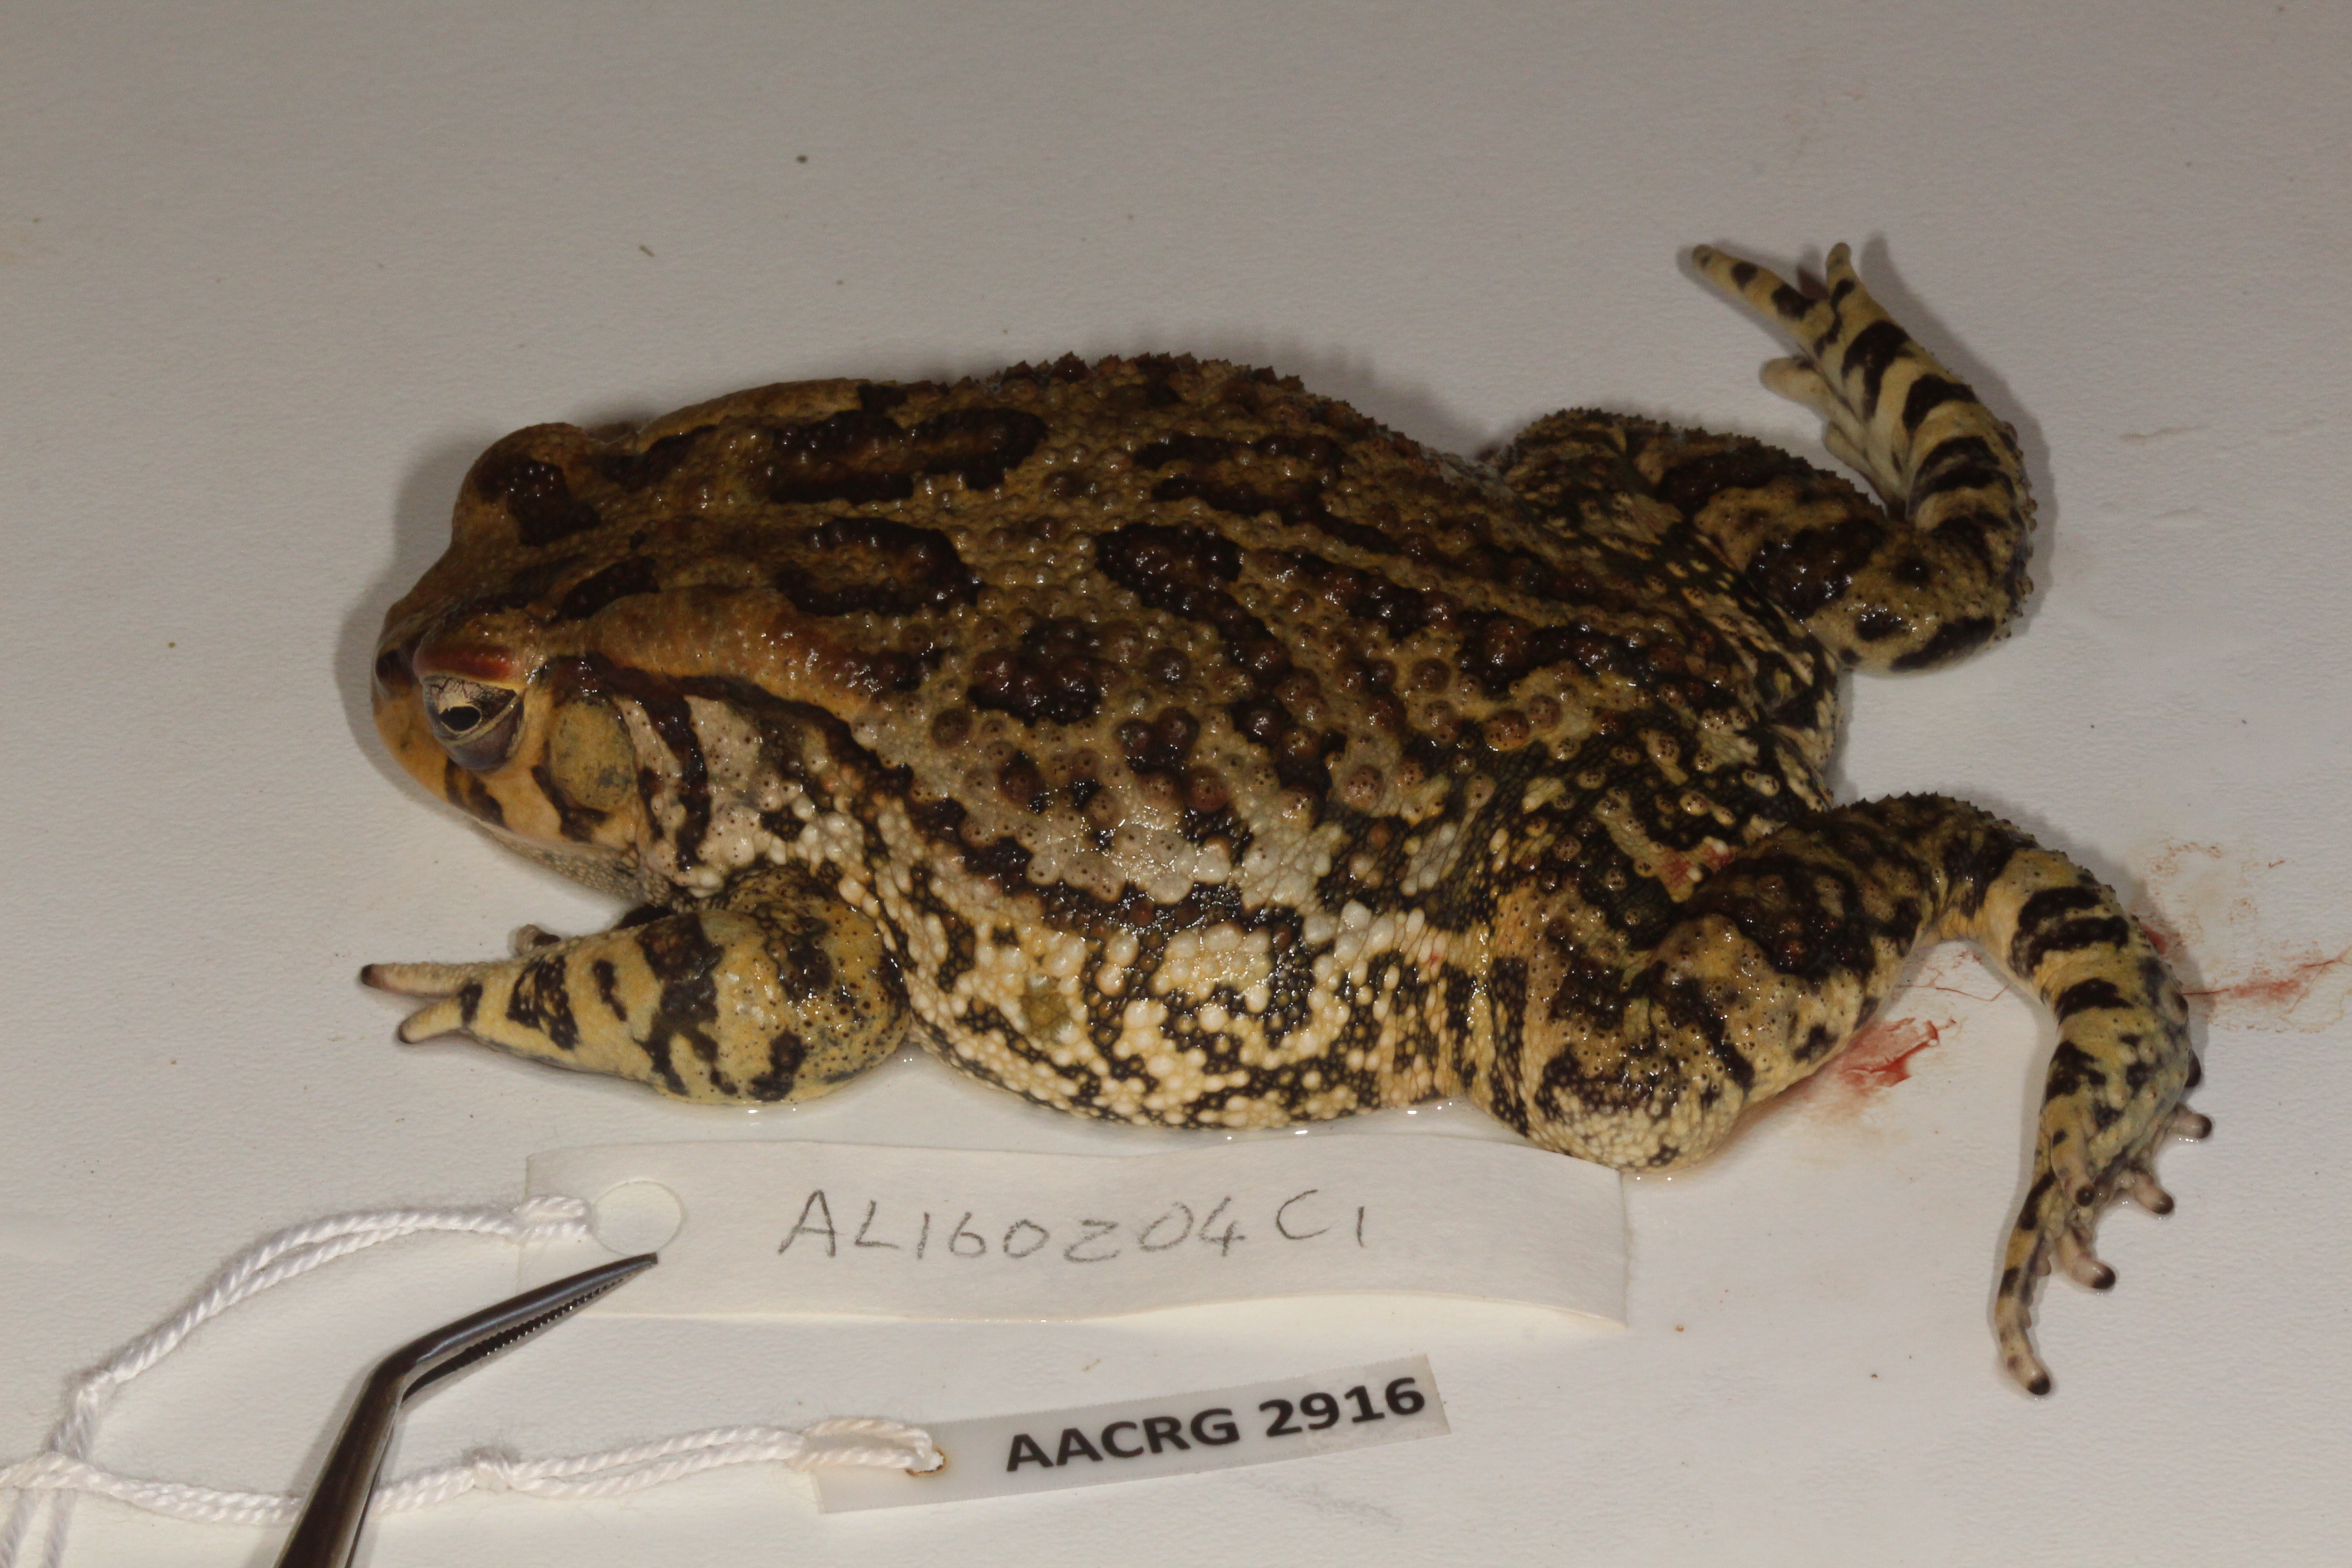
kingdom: Animalia
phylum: Chordata
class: Amphibia
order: Anura
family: Bufonidae
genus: Sclerophrys
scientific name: Sclerophrys garmani
